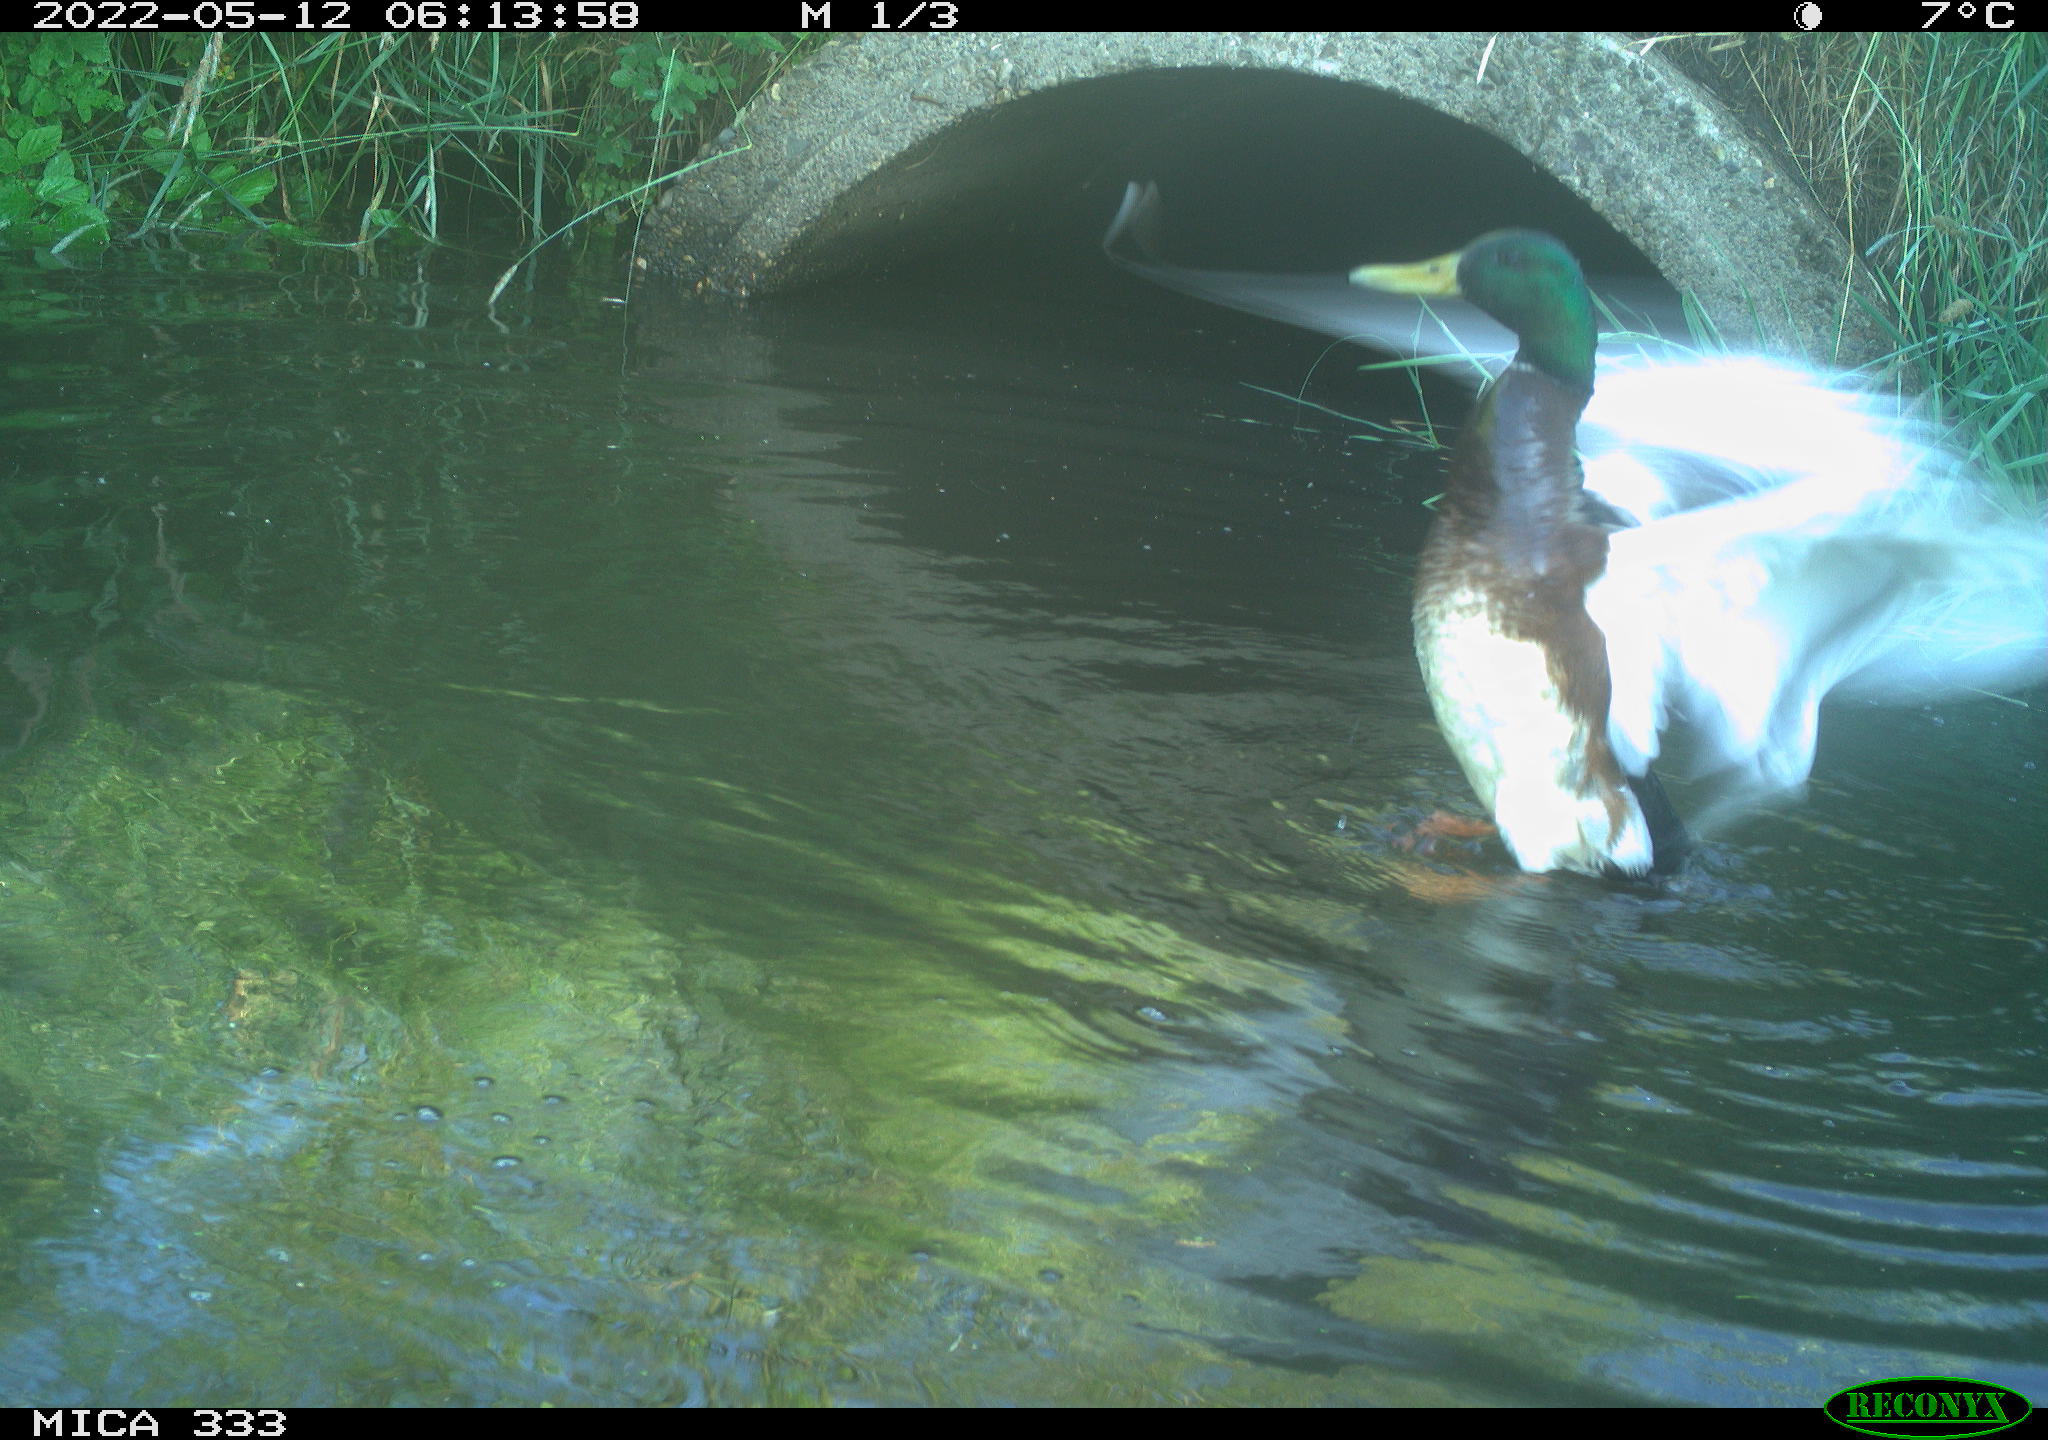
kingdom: Animalia
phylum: Chordata
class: Aves
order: Anseriformes
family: Anatidae
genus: Anas
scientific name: Anas platyrhynchos
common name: Mallard
